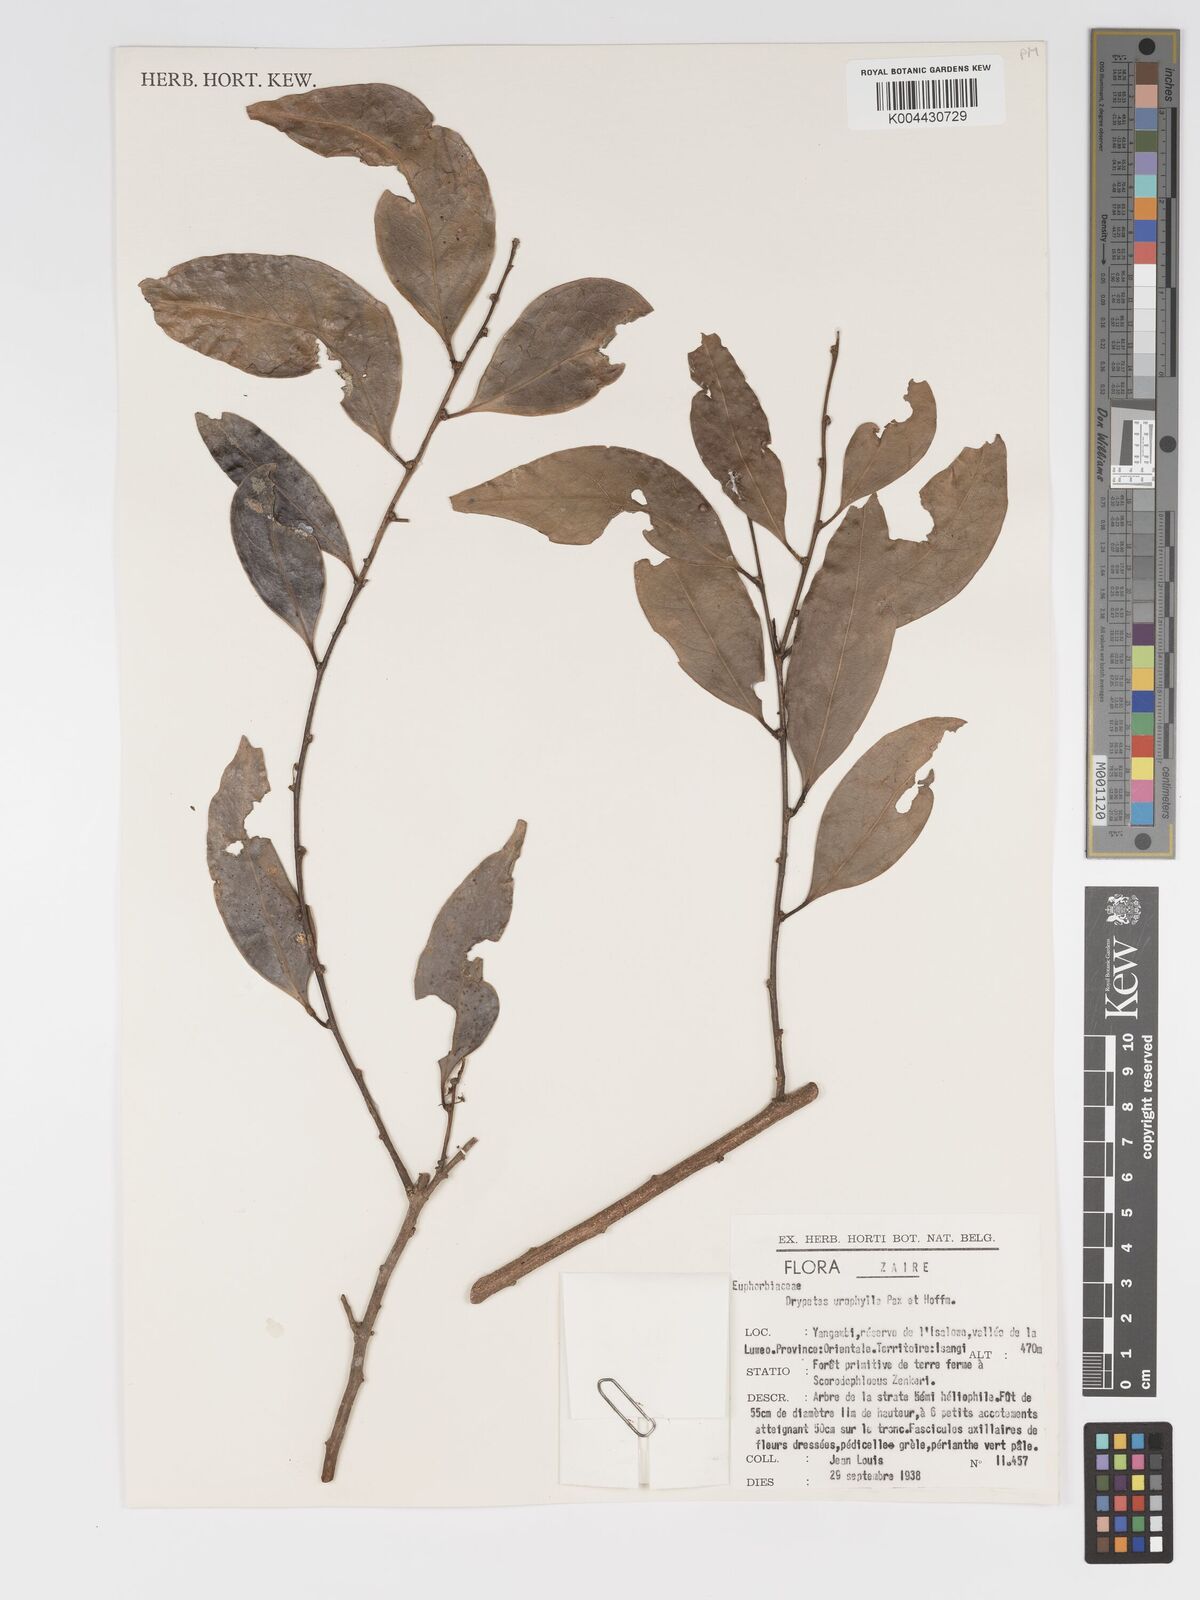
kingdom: Plantae
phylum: Tracheophyta
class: Magnoliopsida
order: Malpighiales
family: Putranjivaceae
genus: Drypetes
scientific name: Drypetes leonensis
